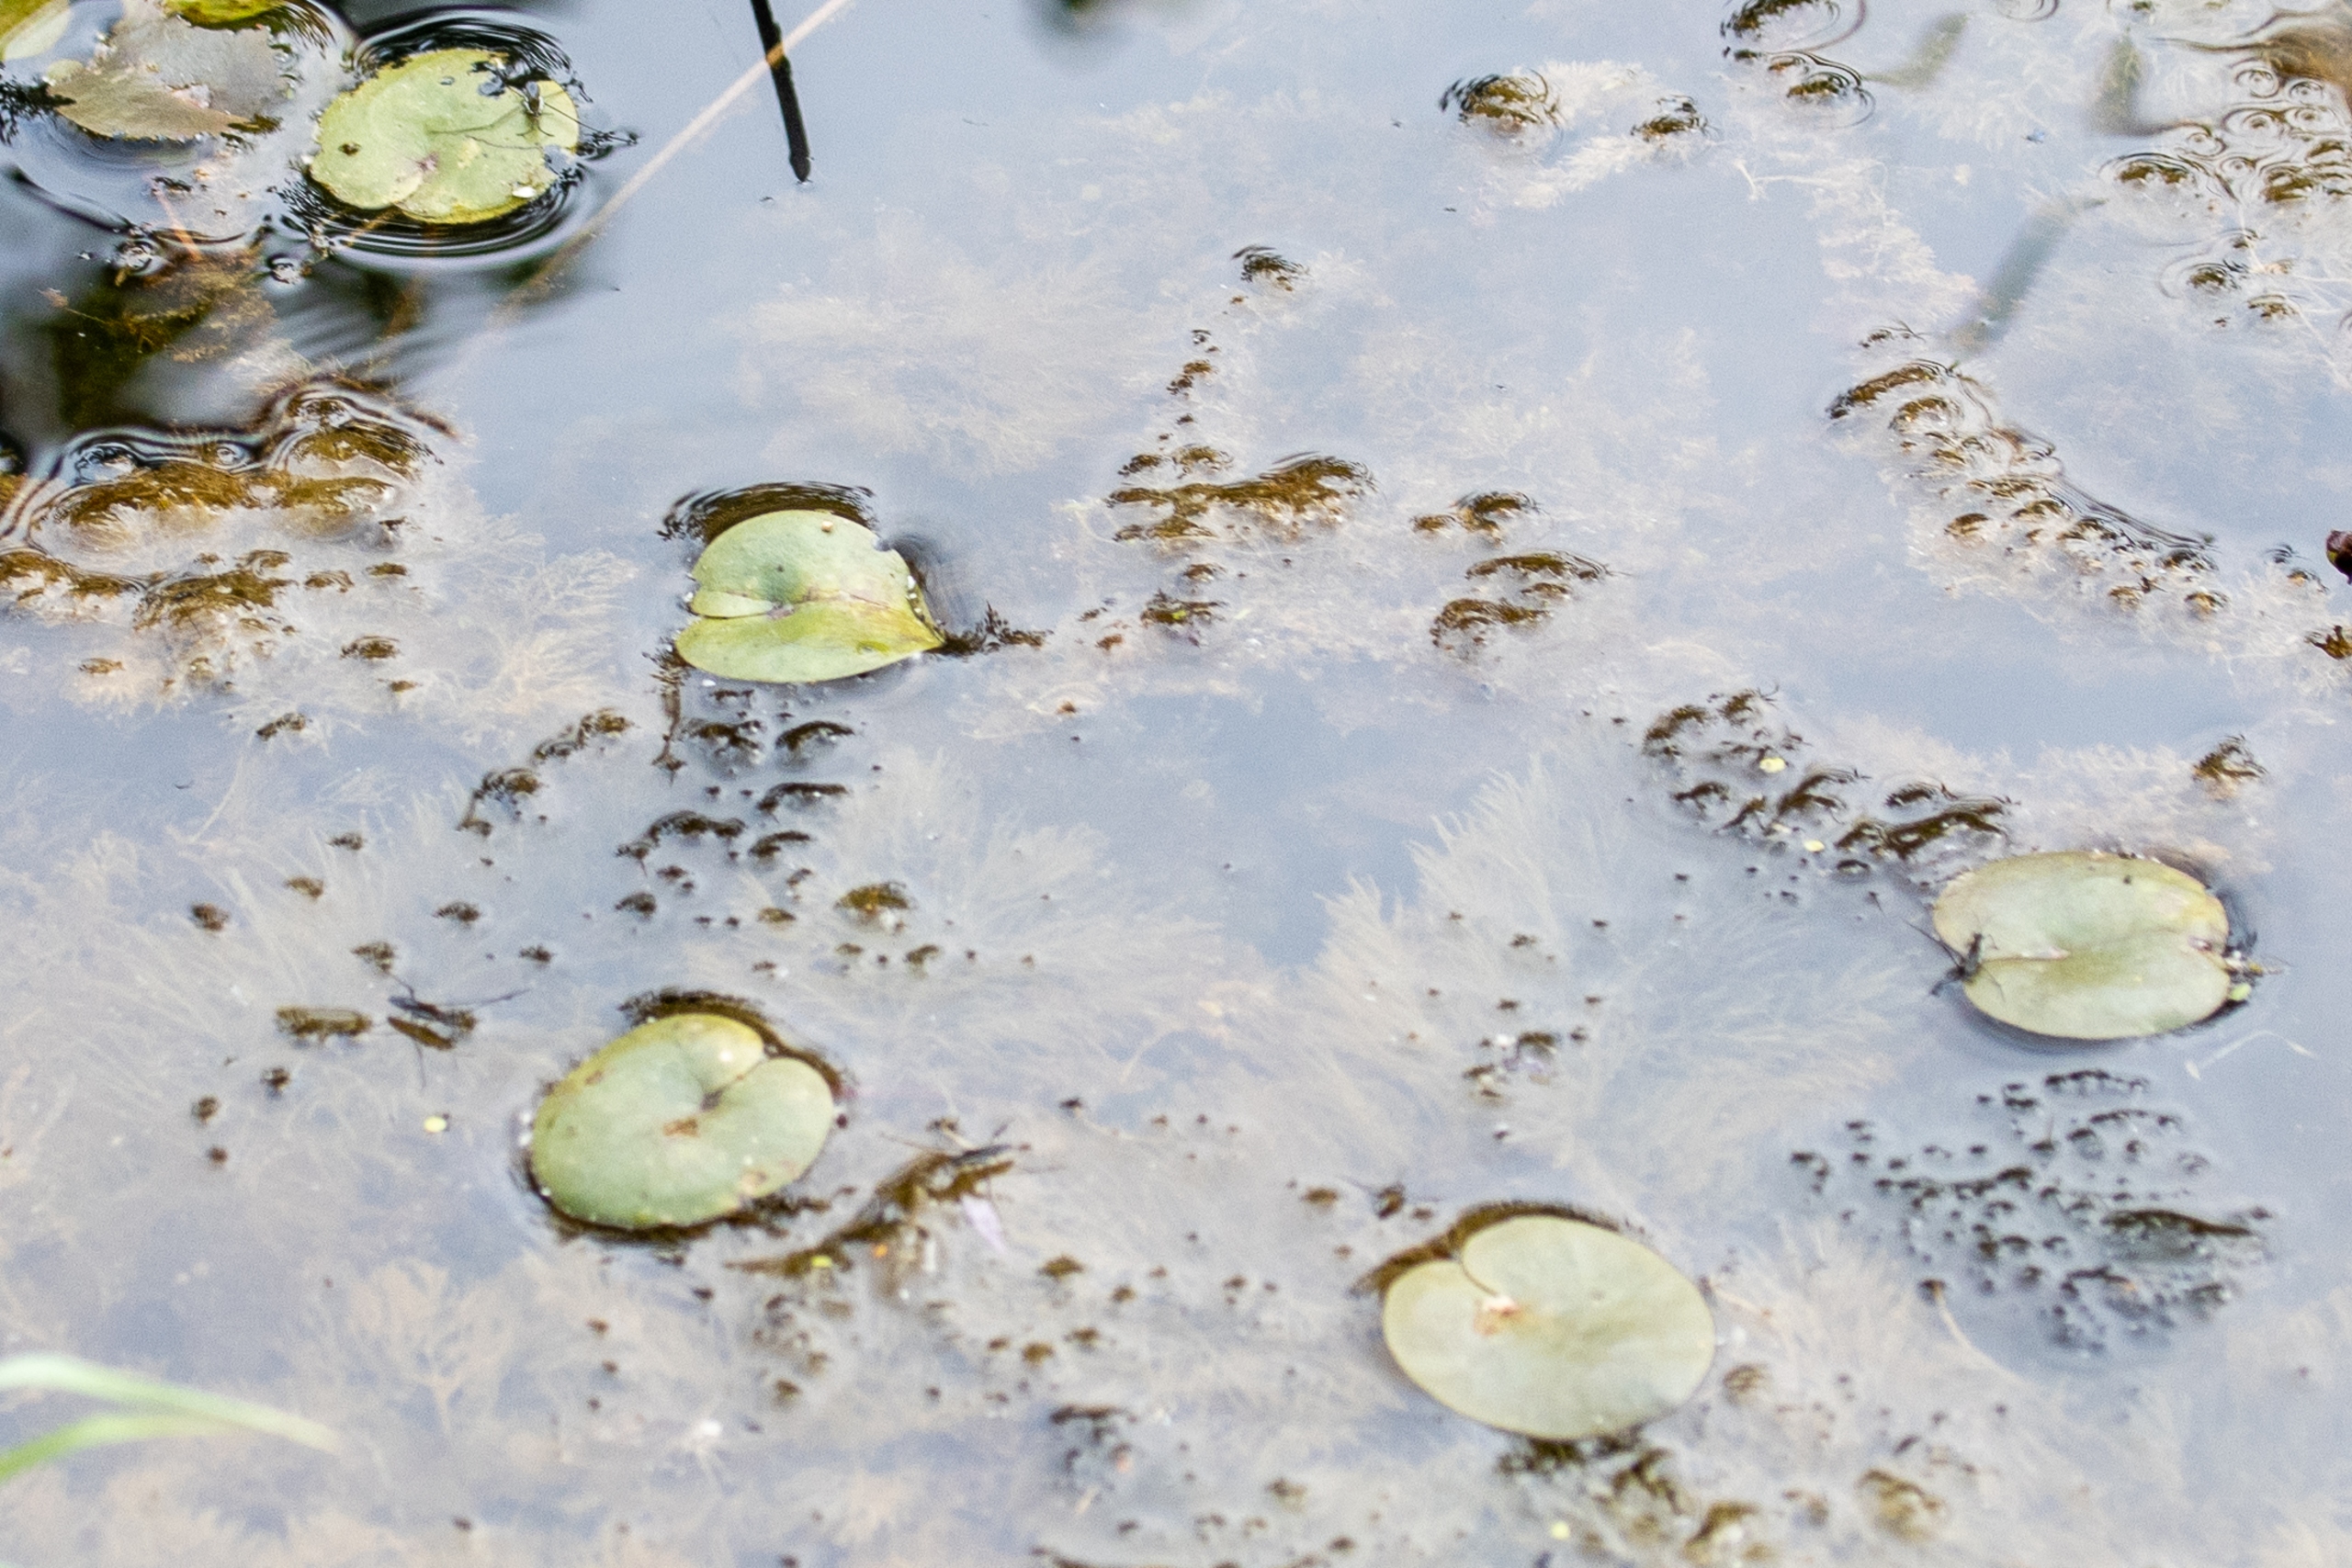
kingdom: Plantae
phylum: Tracheophyta
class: Liliopsida
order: Alismatales
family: Hydrocharitaceae
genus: Hydrocharis
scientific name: Hydrocharis morsus-ranae
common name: Frøbid
